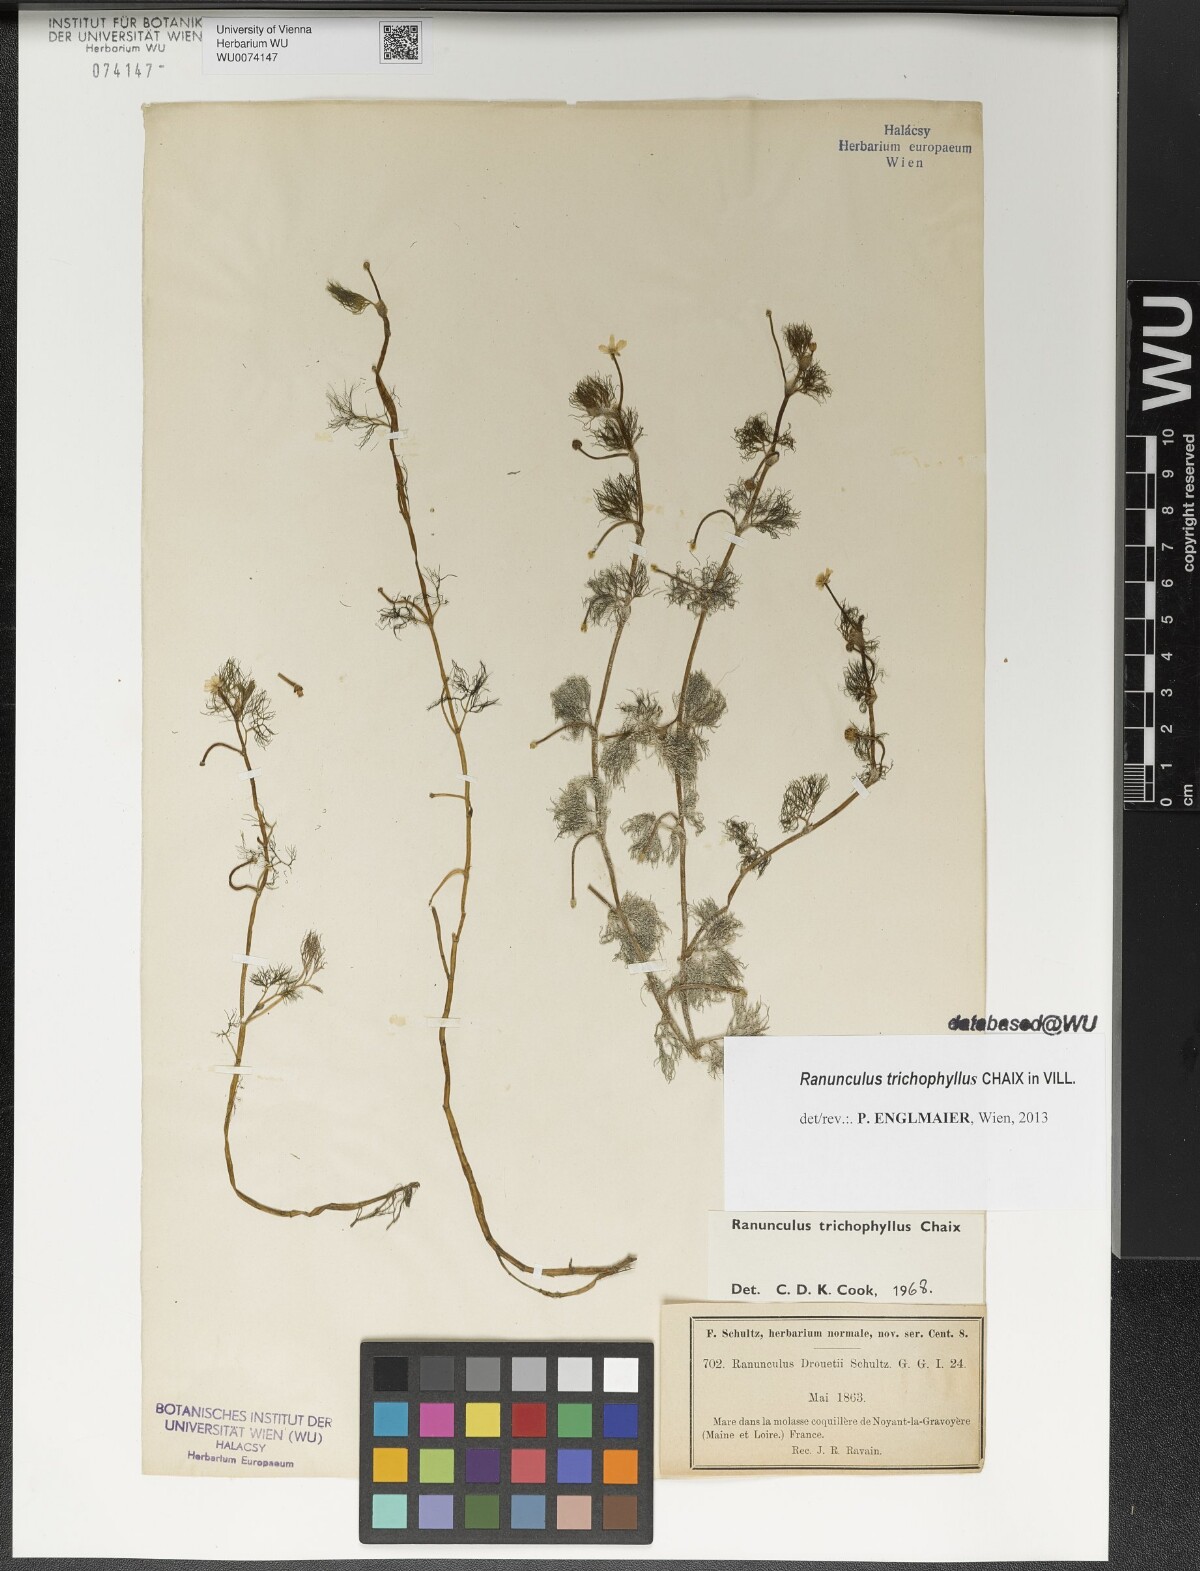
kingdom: Plantae
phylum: Tracheophyta
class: Liliopsida
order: Poales
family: Poaceae
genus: Coleanthus
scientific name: Coleanthus subtilis
